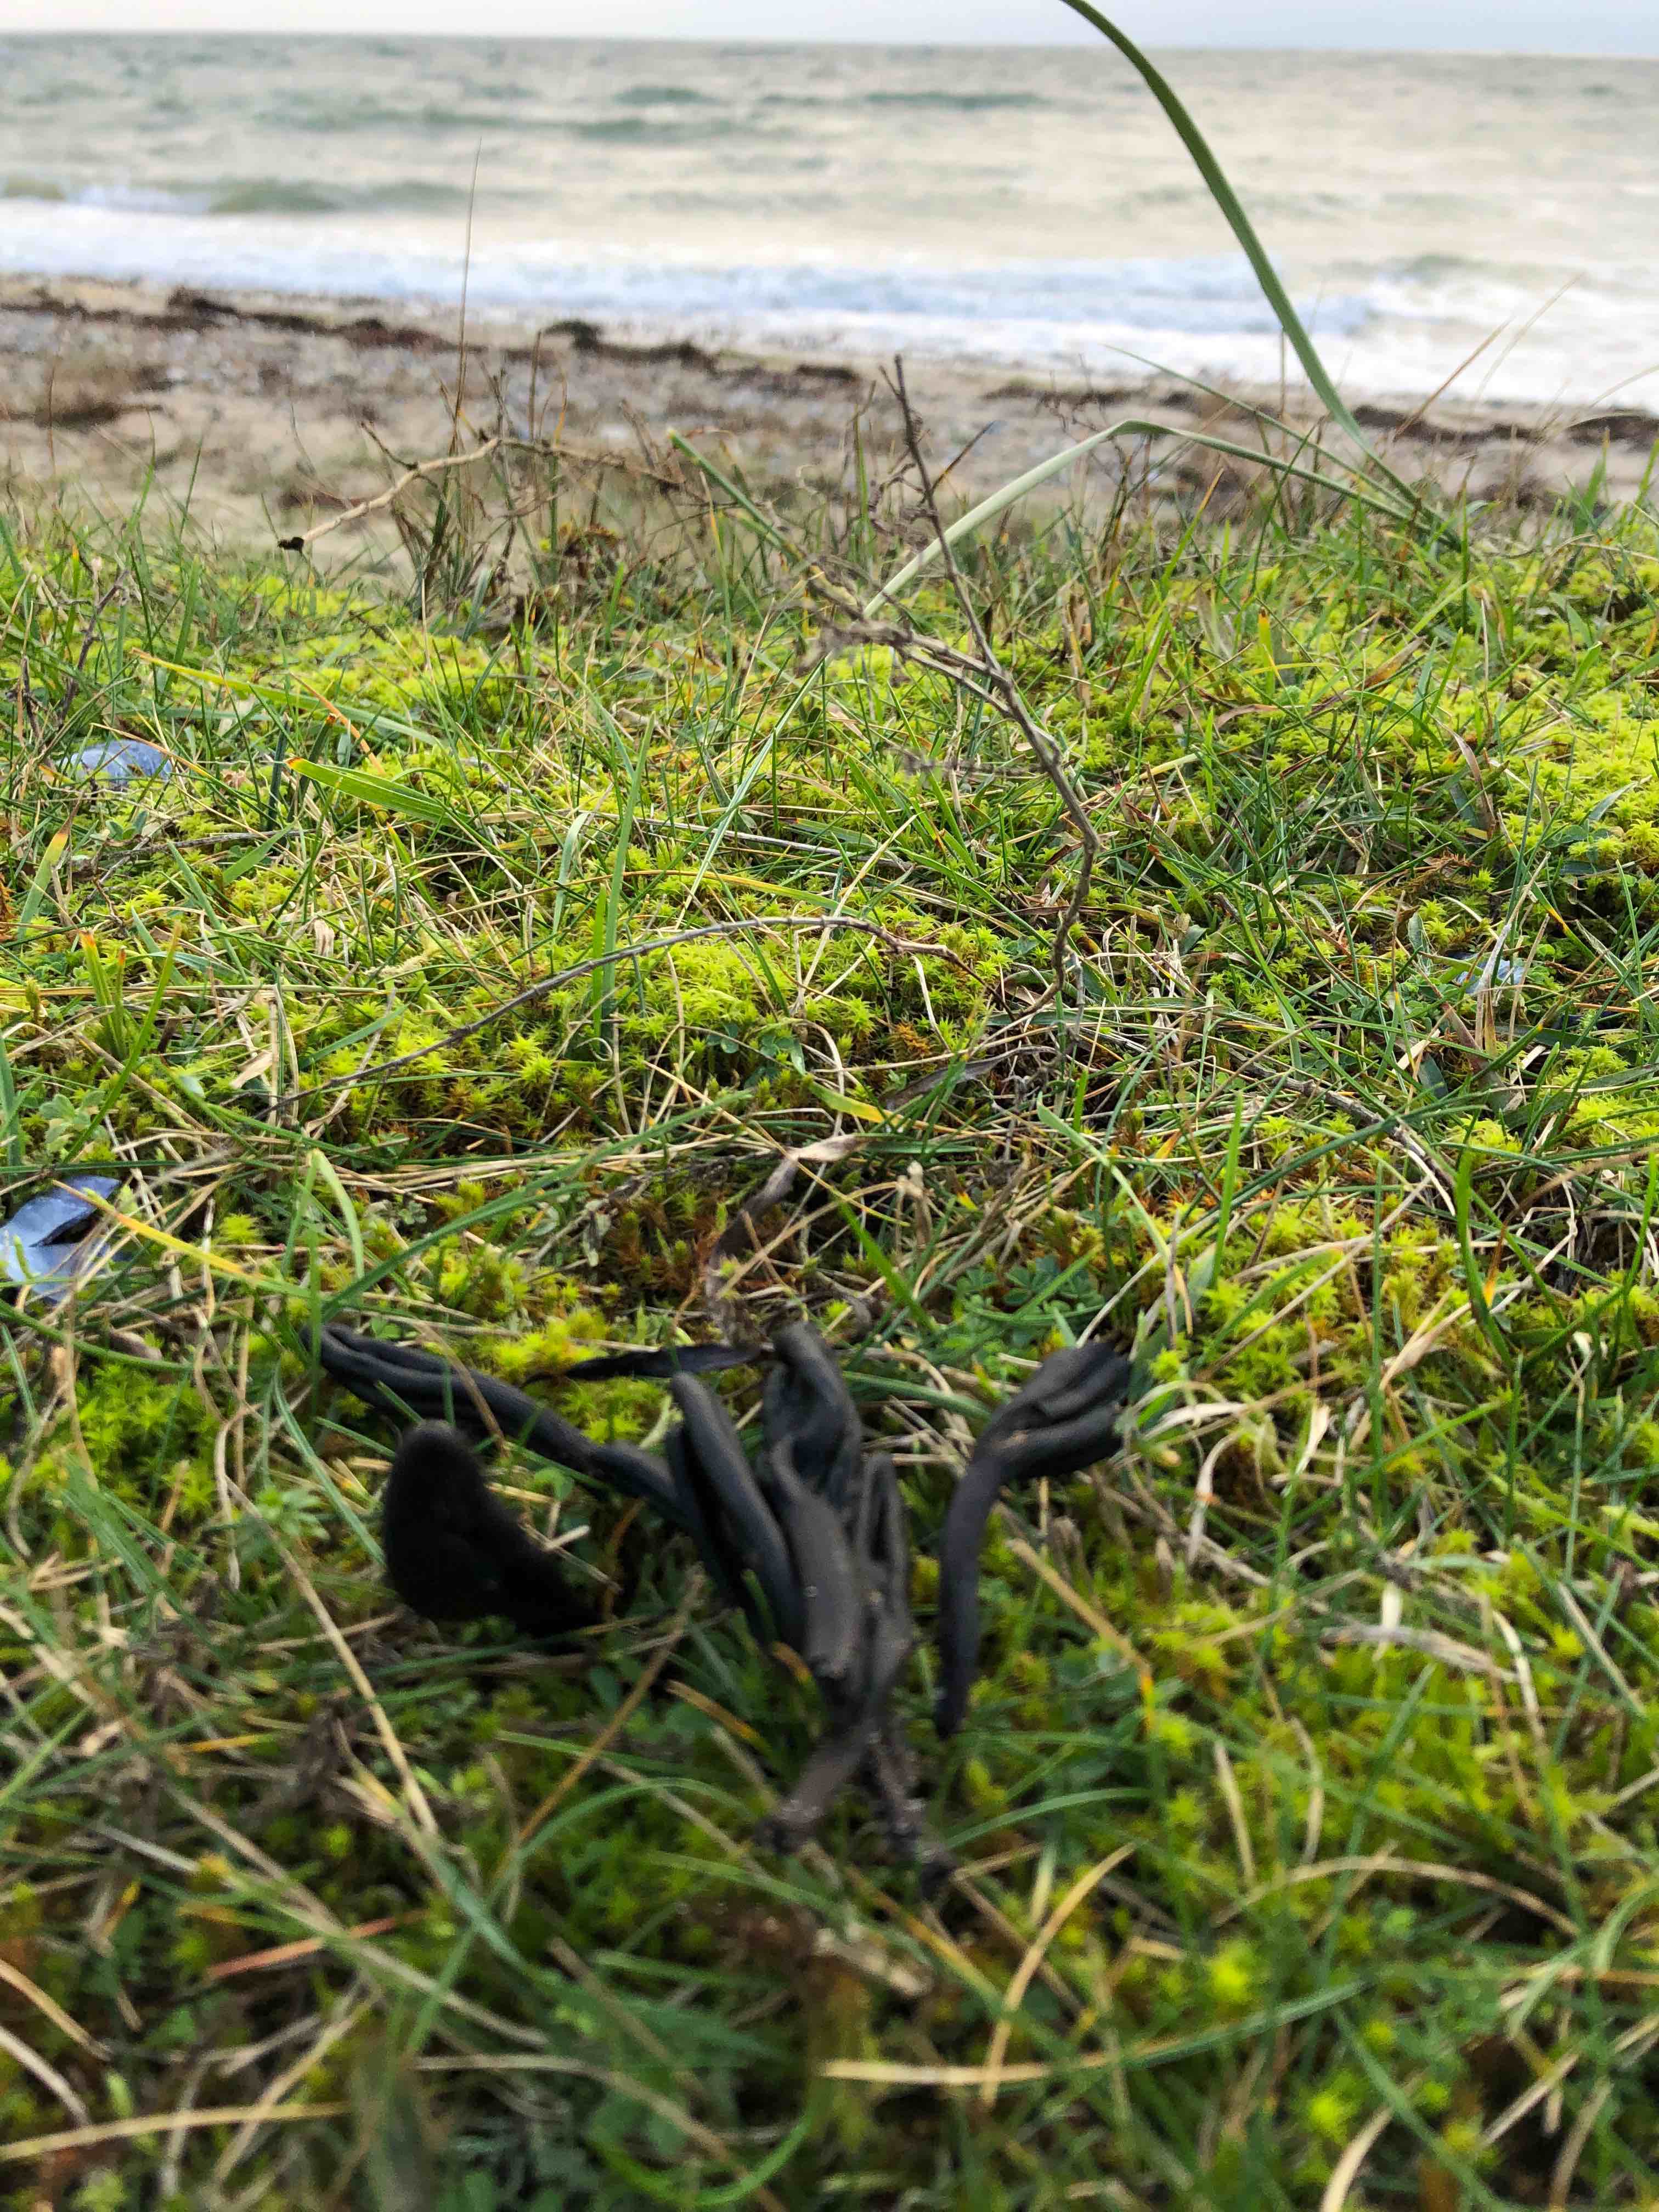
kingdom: Fungi
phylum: Ascomycota
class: Geoglossomycetes
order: Geoglossales
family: Geoglossaceae
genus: Geoglossum
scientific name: Geoglossum cookeianum
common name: bred jordtunge
